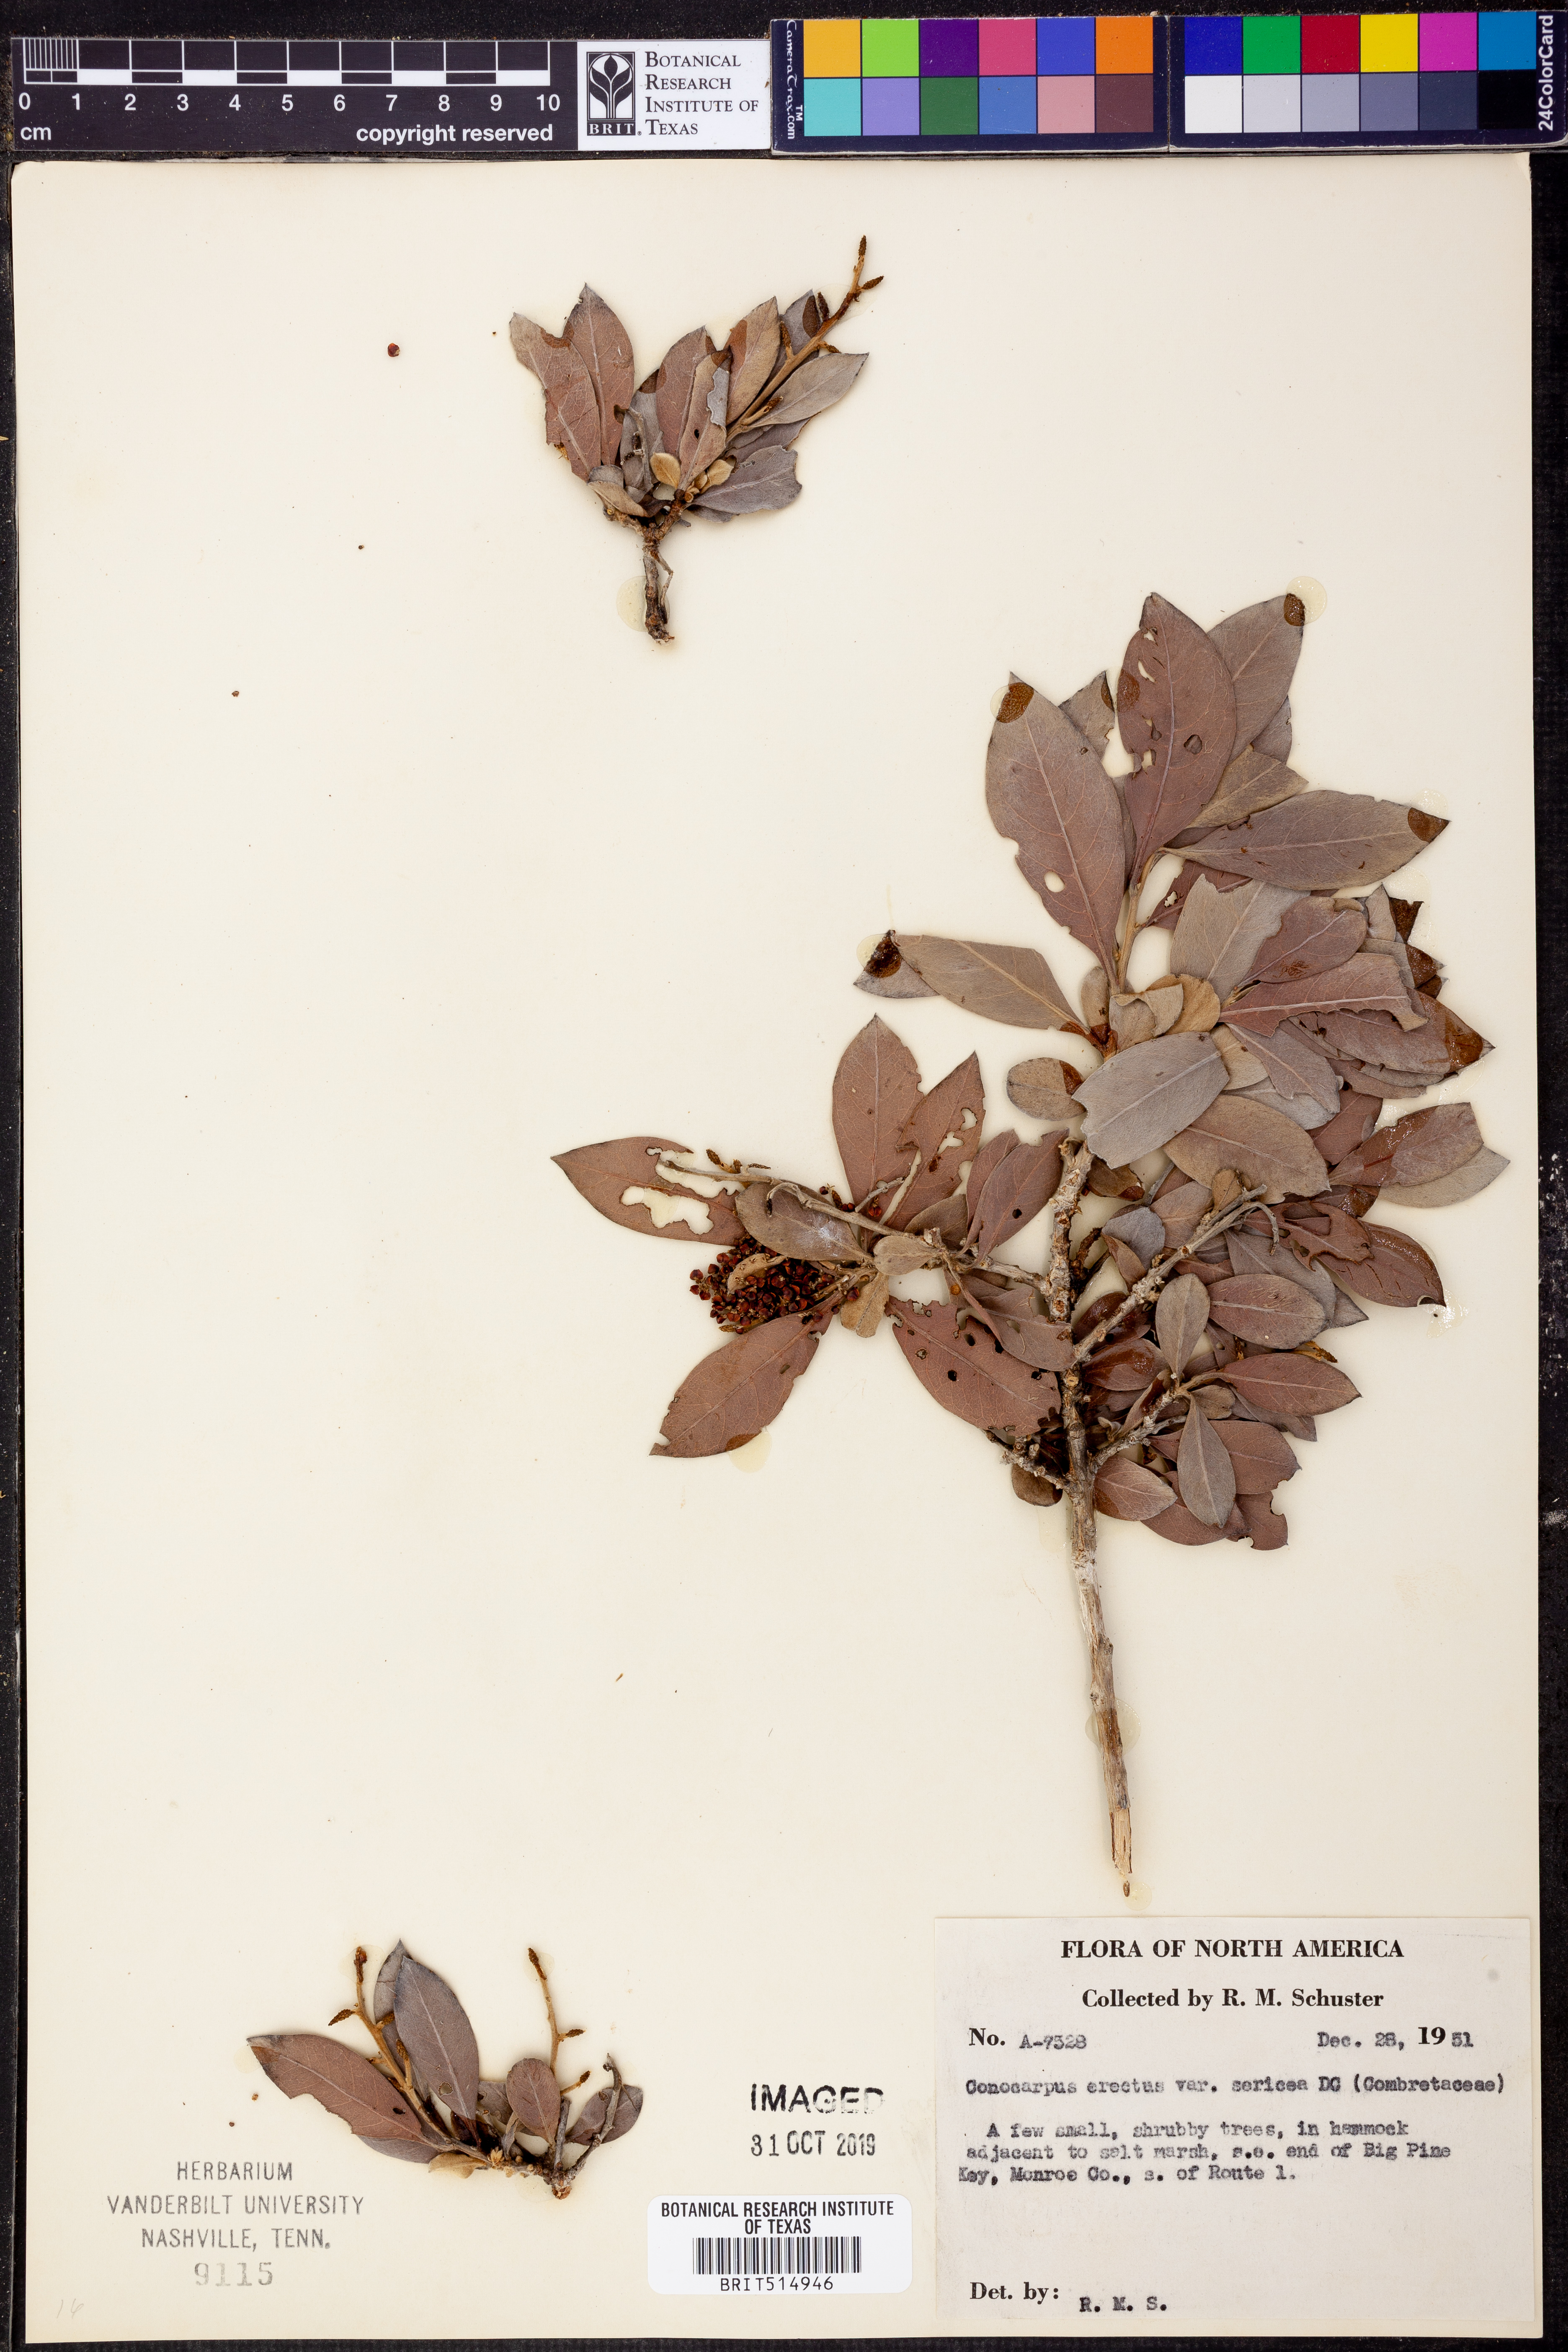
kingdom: Plantae
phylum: Tracheophyta
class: Magnoliopsida
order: Myrtales
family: Combretaceae
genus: Conocarpus
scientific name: Conocarpus erectus
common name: Button mangrove
